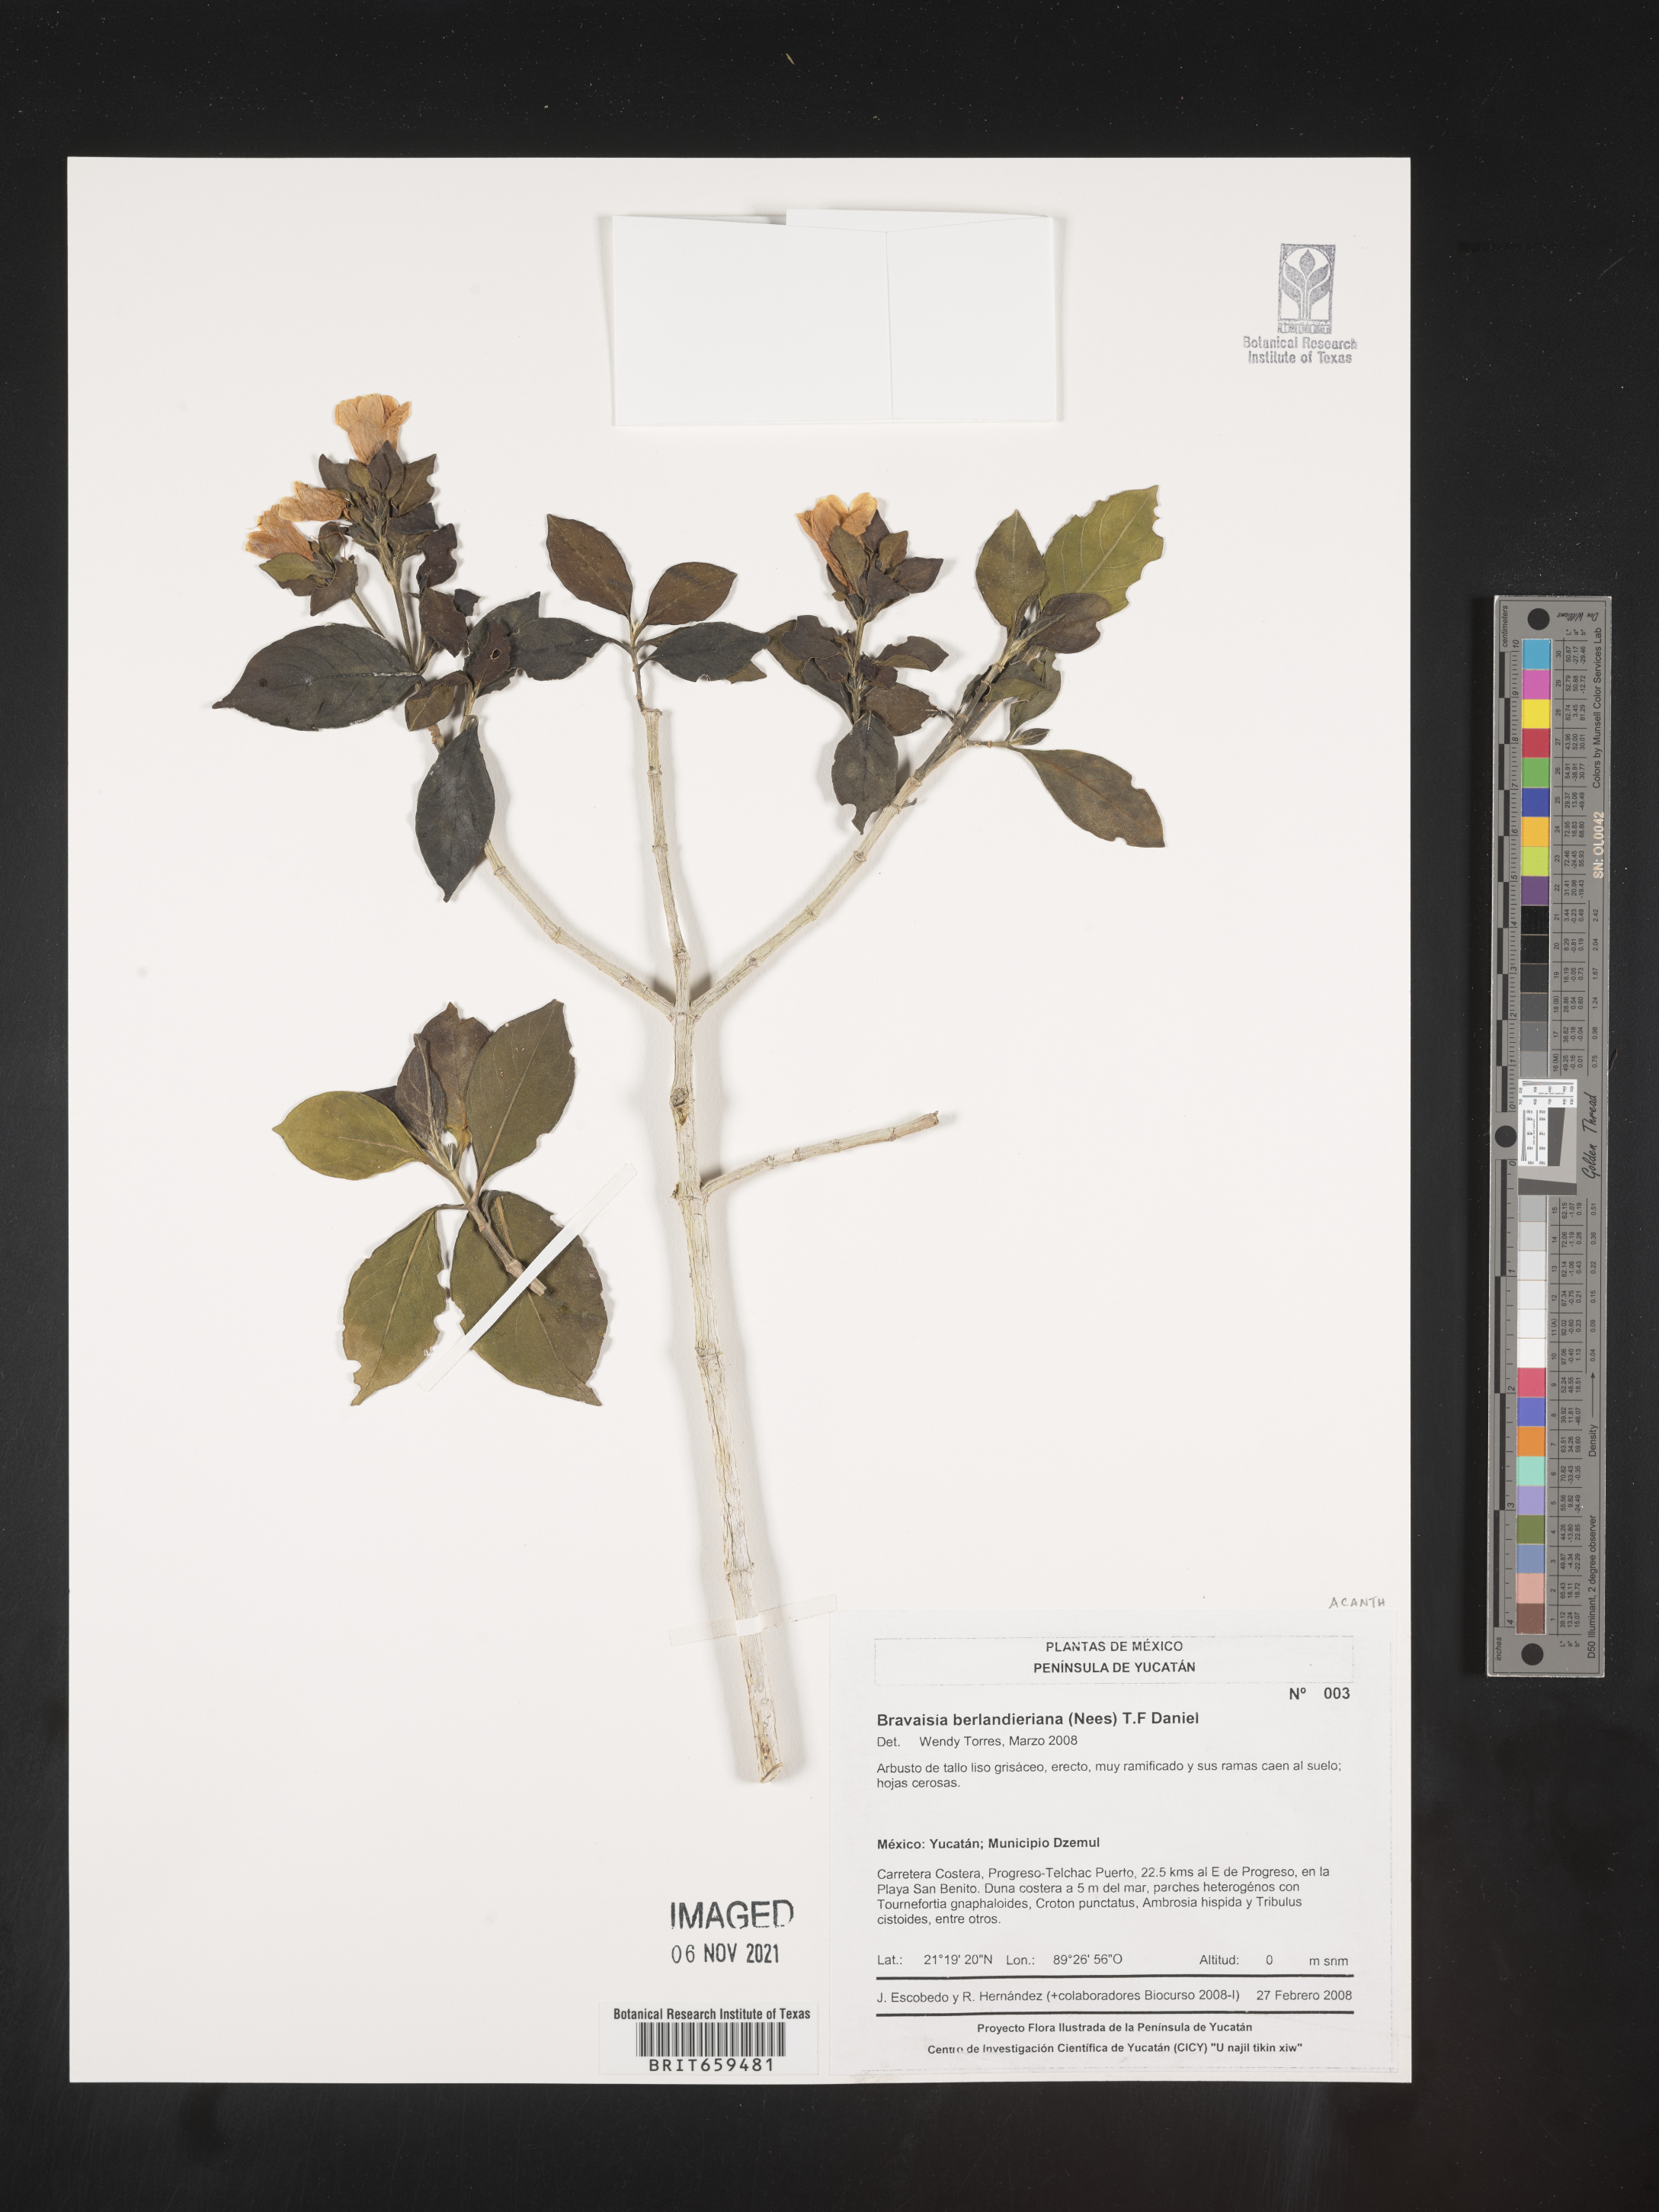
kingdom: Plantae
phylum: Tracheophyta
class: Magnoliopsida
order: Lamiales
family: Acanthaceae
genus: Bravaisia
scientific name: Bravaisia
